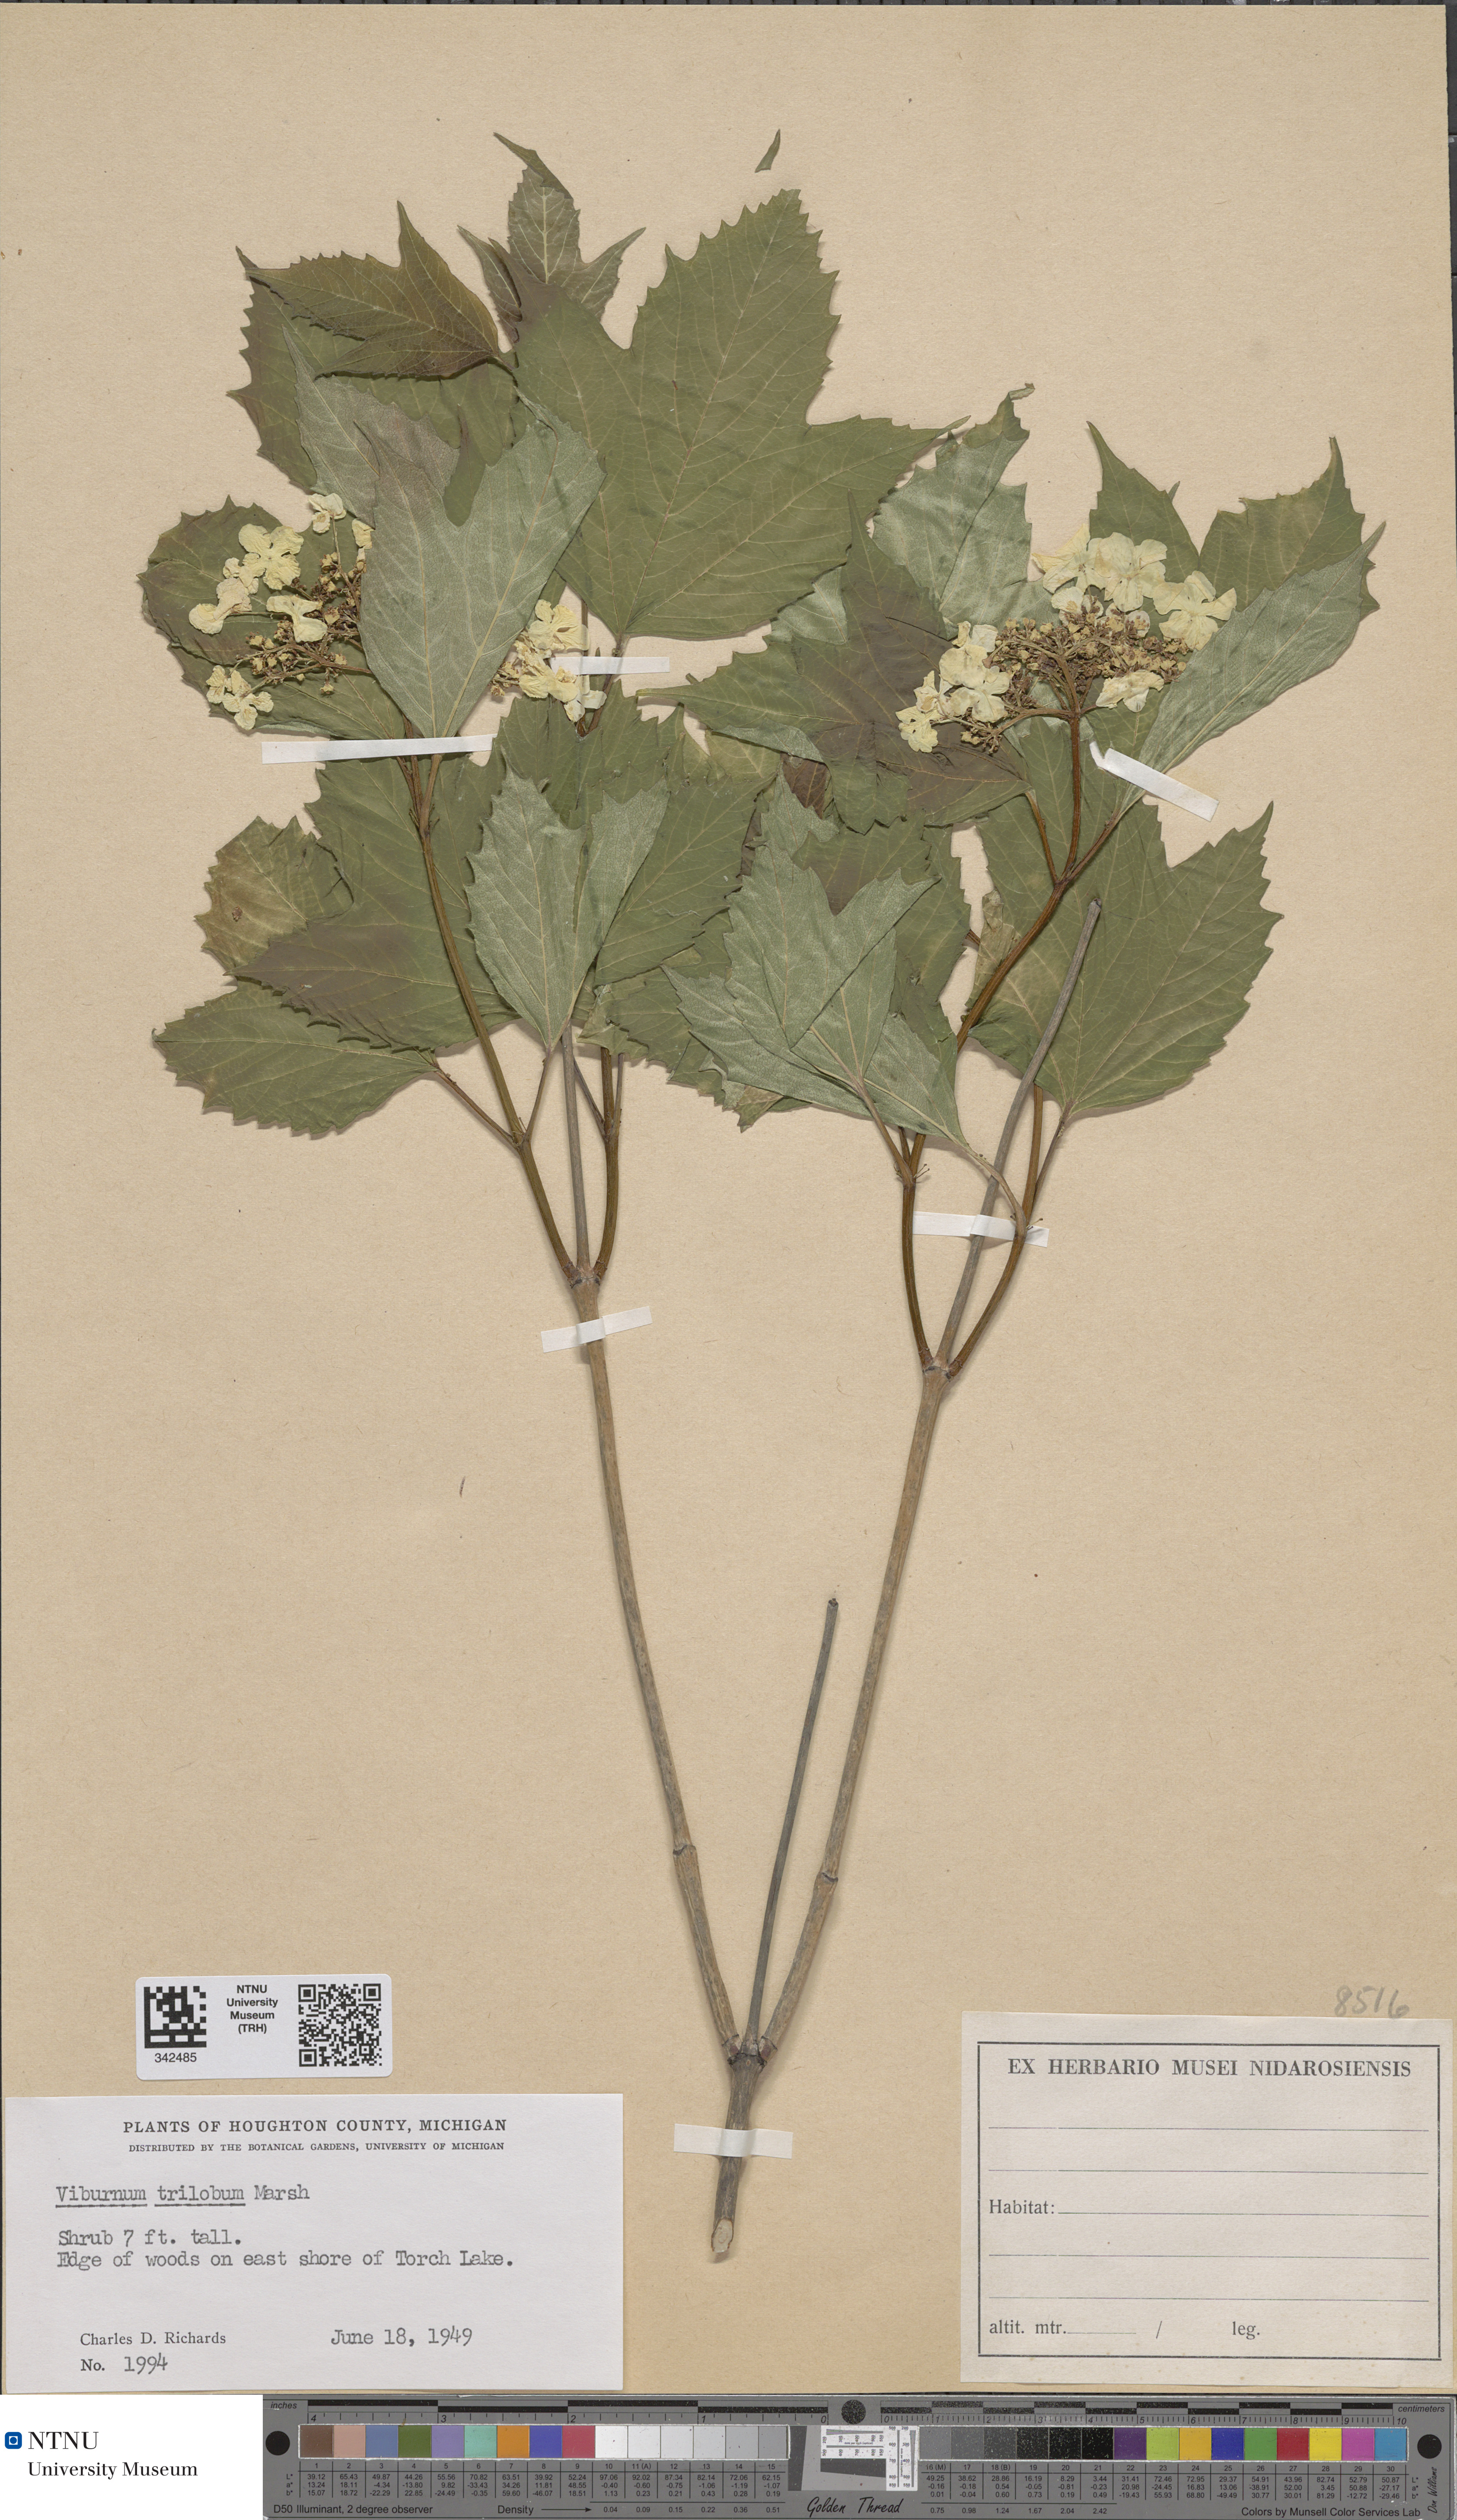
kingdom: Plantae
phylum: Tracheophyta
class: Magnoliopsida
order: Dipsacales
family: Viburnaceae
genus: Viburnum
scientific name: Viburnum trilobum
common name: American cranberrybush
